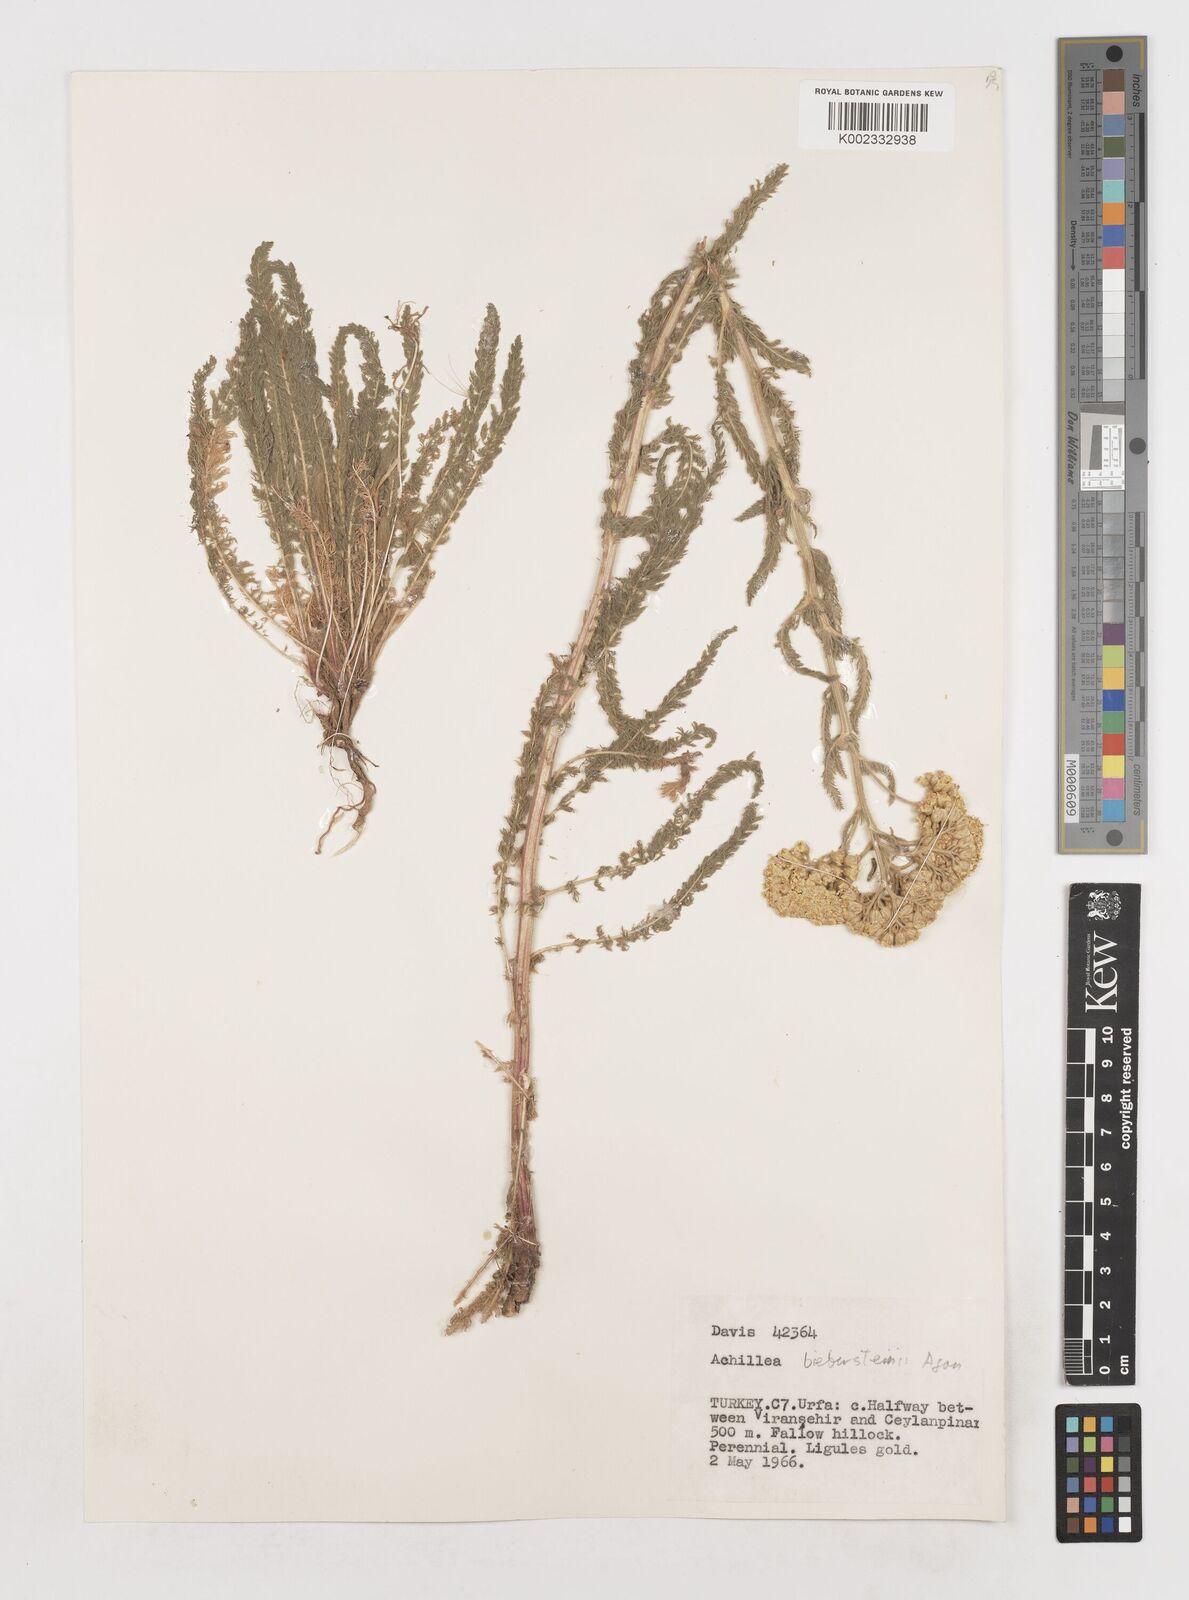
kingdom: Plantae
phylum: Tracheophyta
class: Magnoliopsida
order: Asterales
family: Asteraceae
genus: Achillea
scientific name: Achillea arabica
